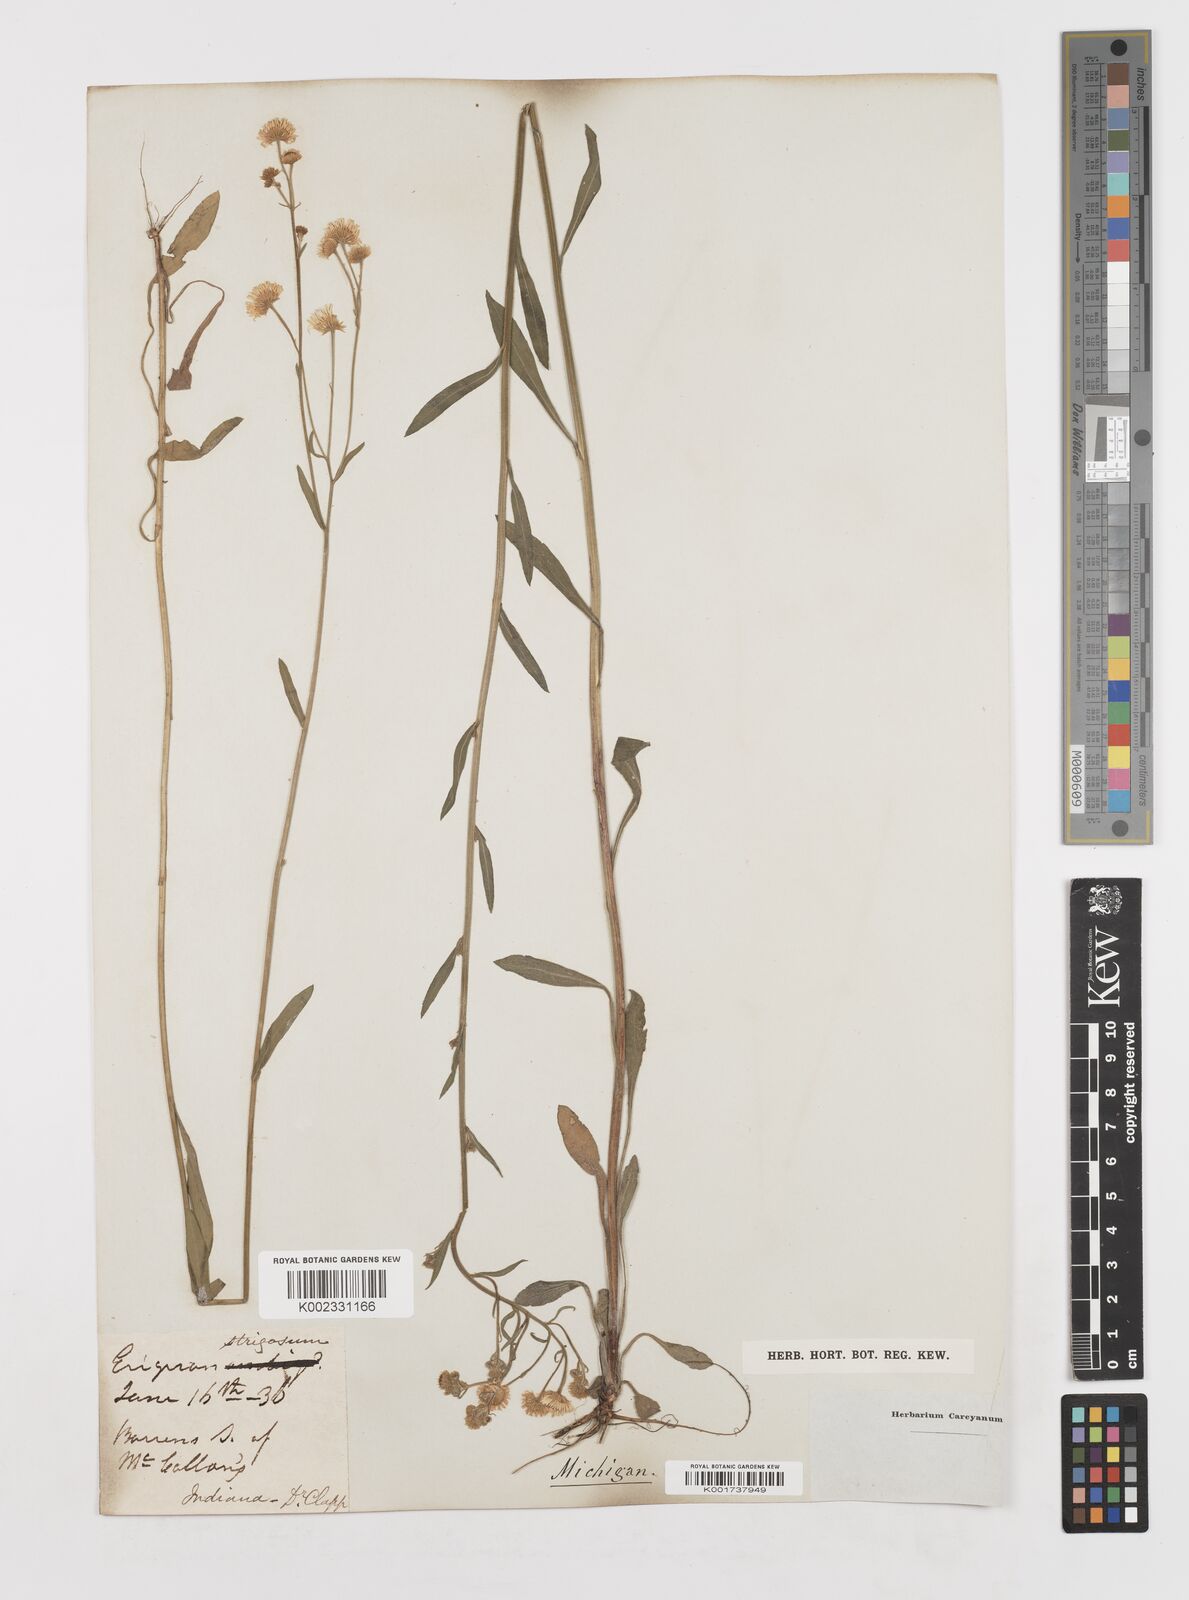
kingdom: Plantae
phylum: Tracheophyta
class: Magnoliopsida
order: Asterales
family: Asteraceae
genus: Erigeron
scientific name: Erigeron strigosus
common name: Common eastern fleabane
